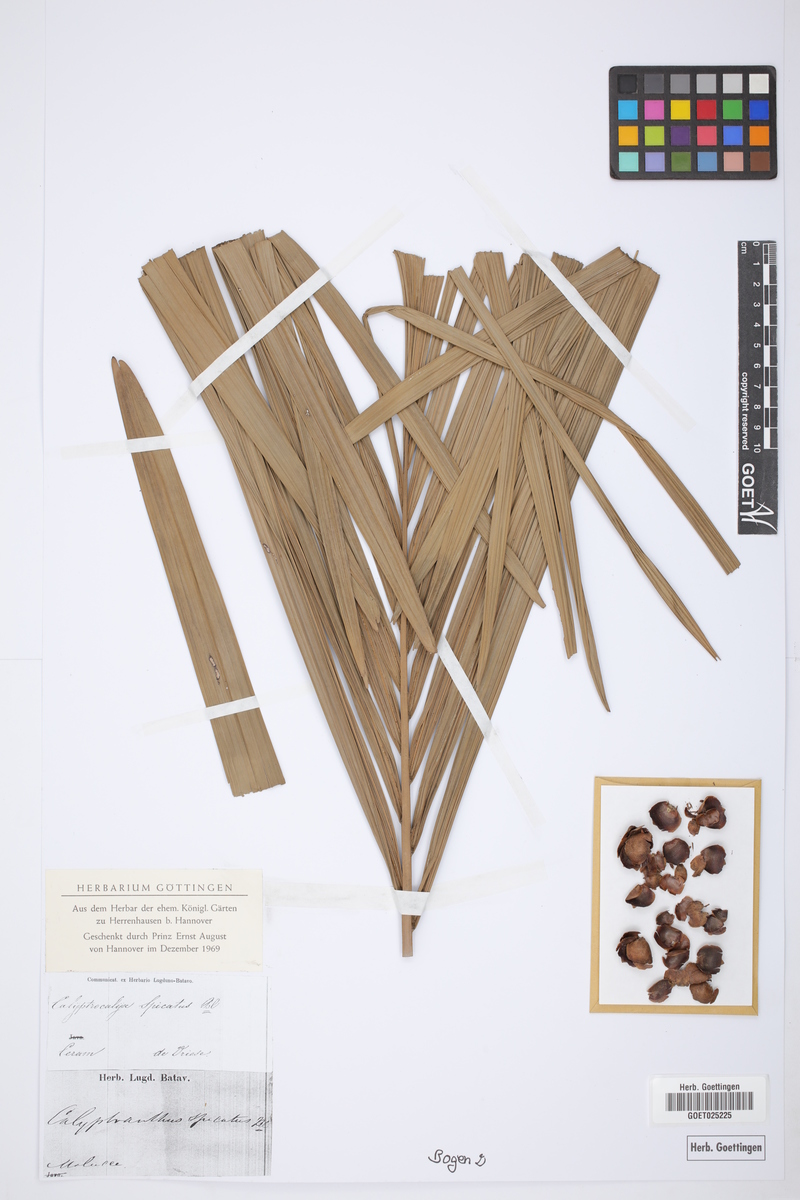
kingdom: Plantae
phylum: Tracheophyta
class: Liliopsida
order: Arecales
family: Arecaceae
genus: Calyptrocalyx
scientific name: Calyptrocalyx spicatus
